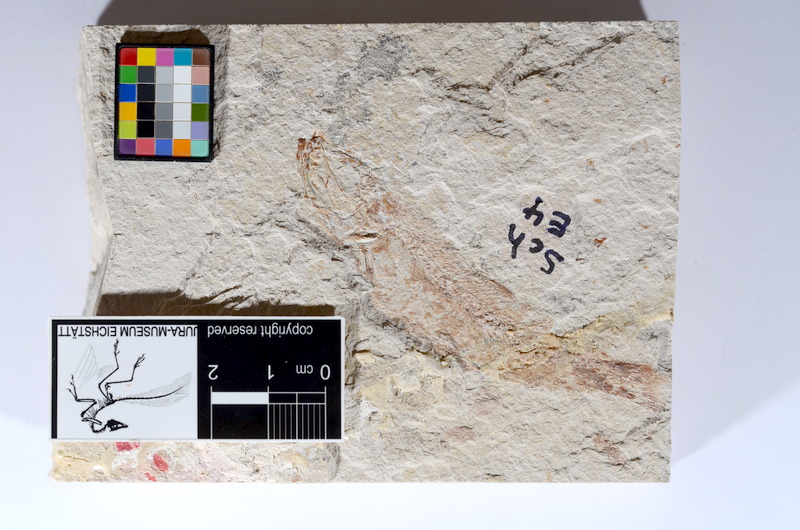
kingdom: Animalia
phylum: Chordata
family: Ascalaboidae
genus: Tharsis
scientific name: Tharsis dubius
